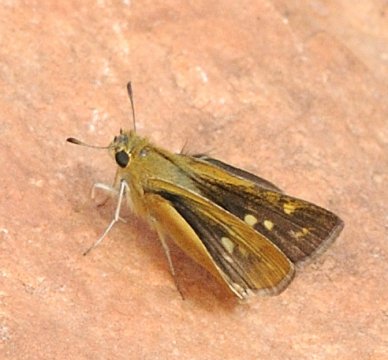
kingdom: Animalia
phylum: Arthropoda
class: Insecta
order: Lepidoptera
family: Hesperiidae
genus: Gegenes
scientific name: Gegenes
